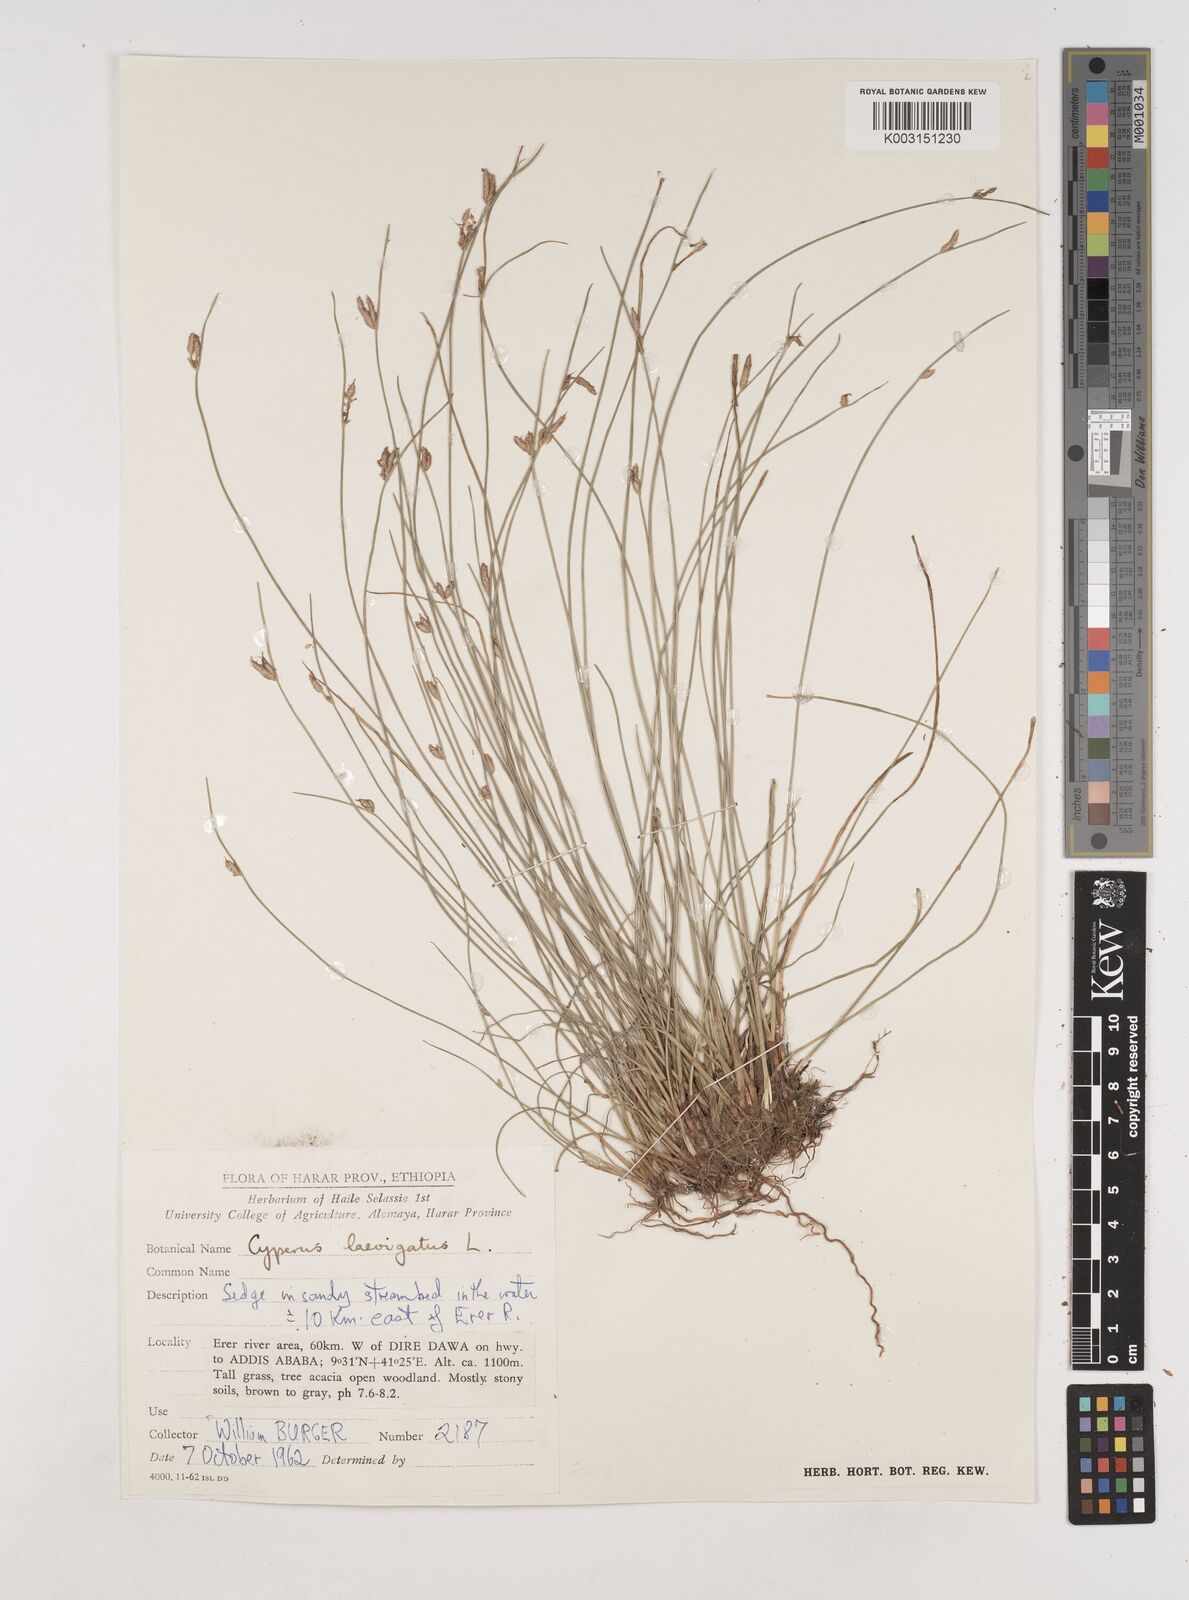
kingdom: Plantae
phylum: Tracheophyta
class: Liliopsida
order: Poales
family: Cyperaceae
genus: Cyperus
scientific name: Cyperus laevigatus
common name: Smooth flat sedge
